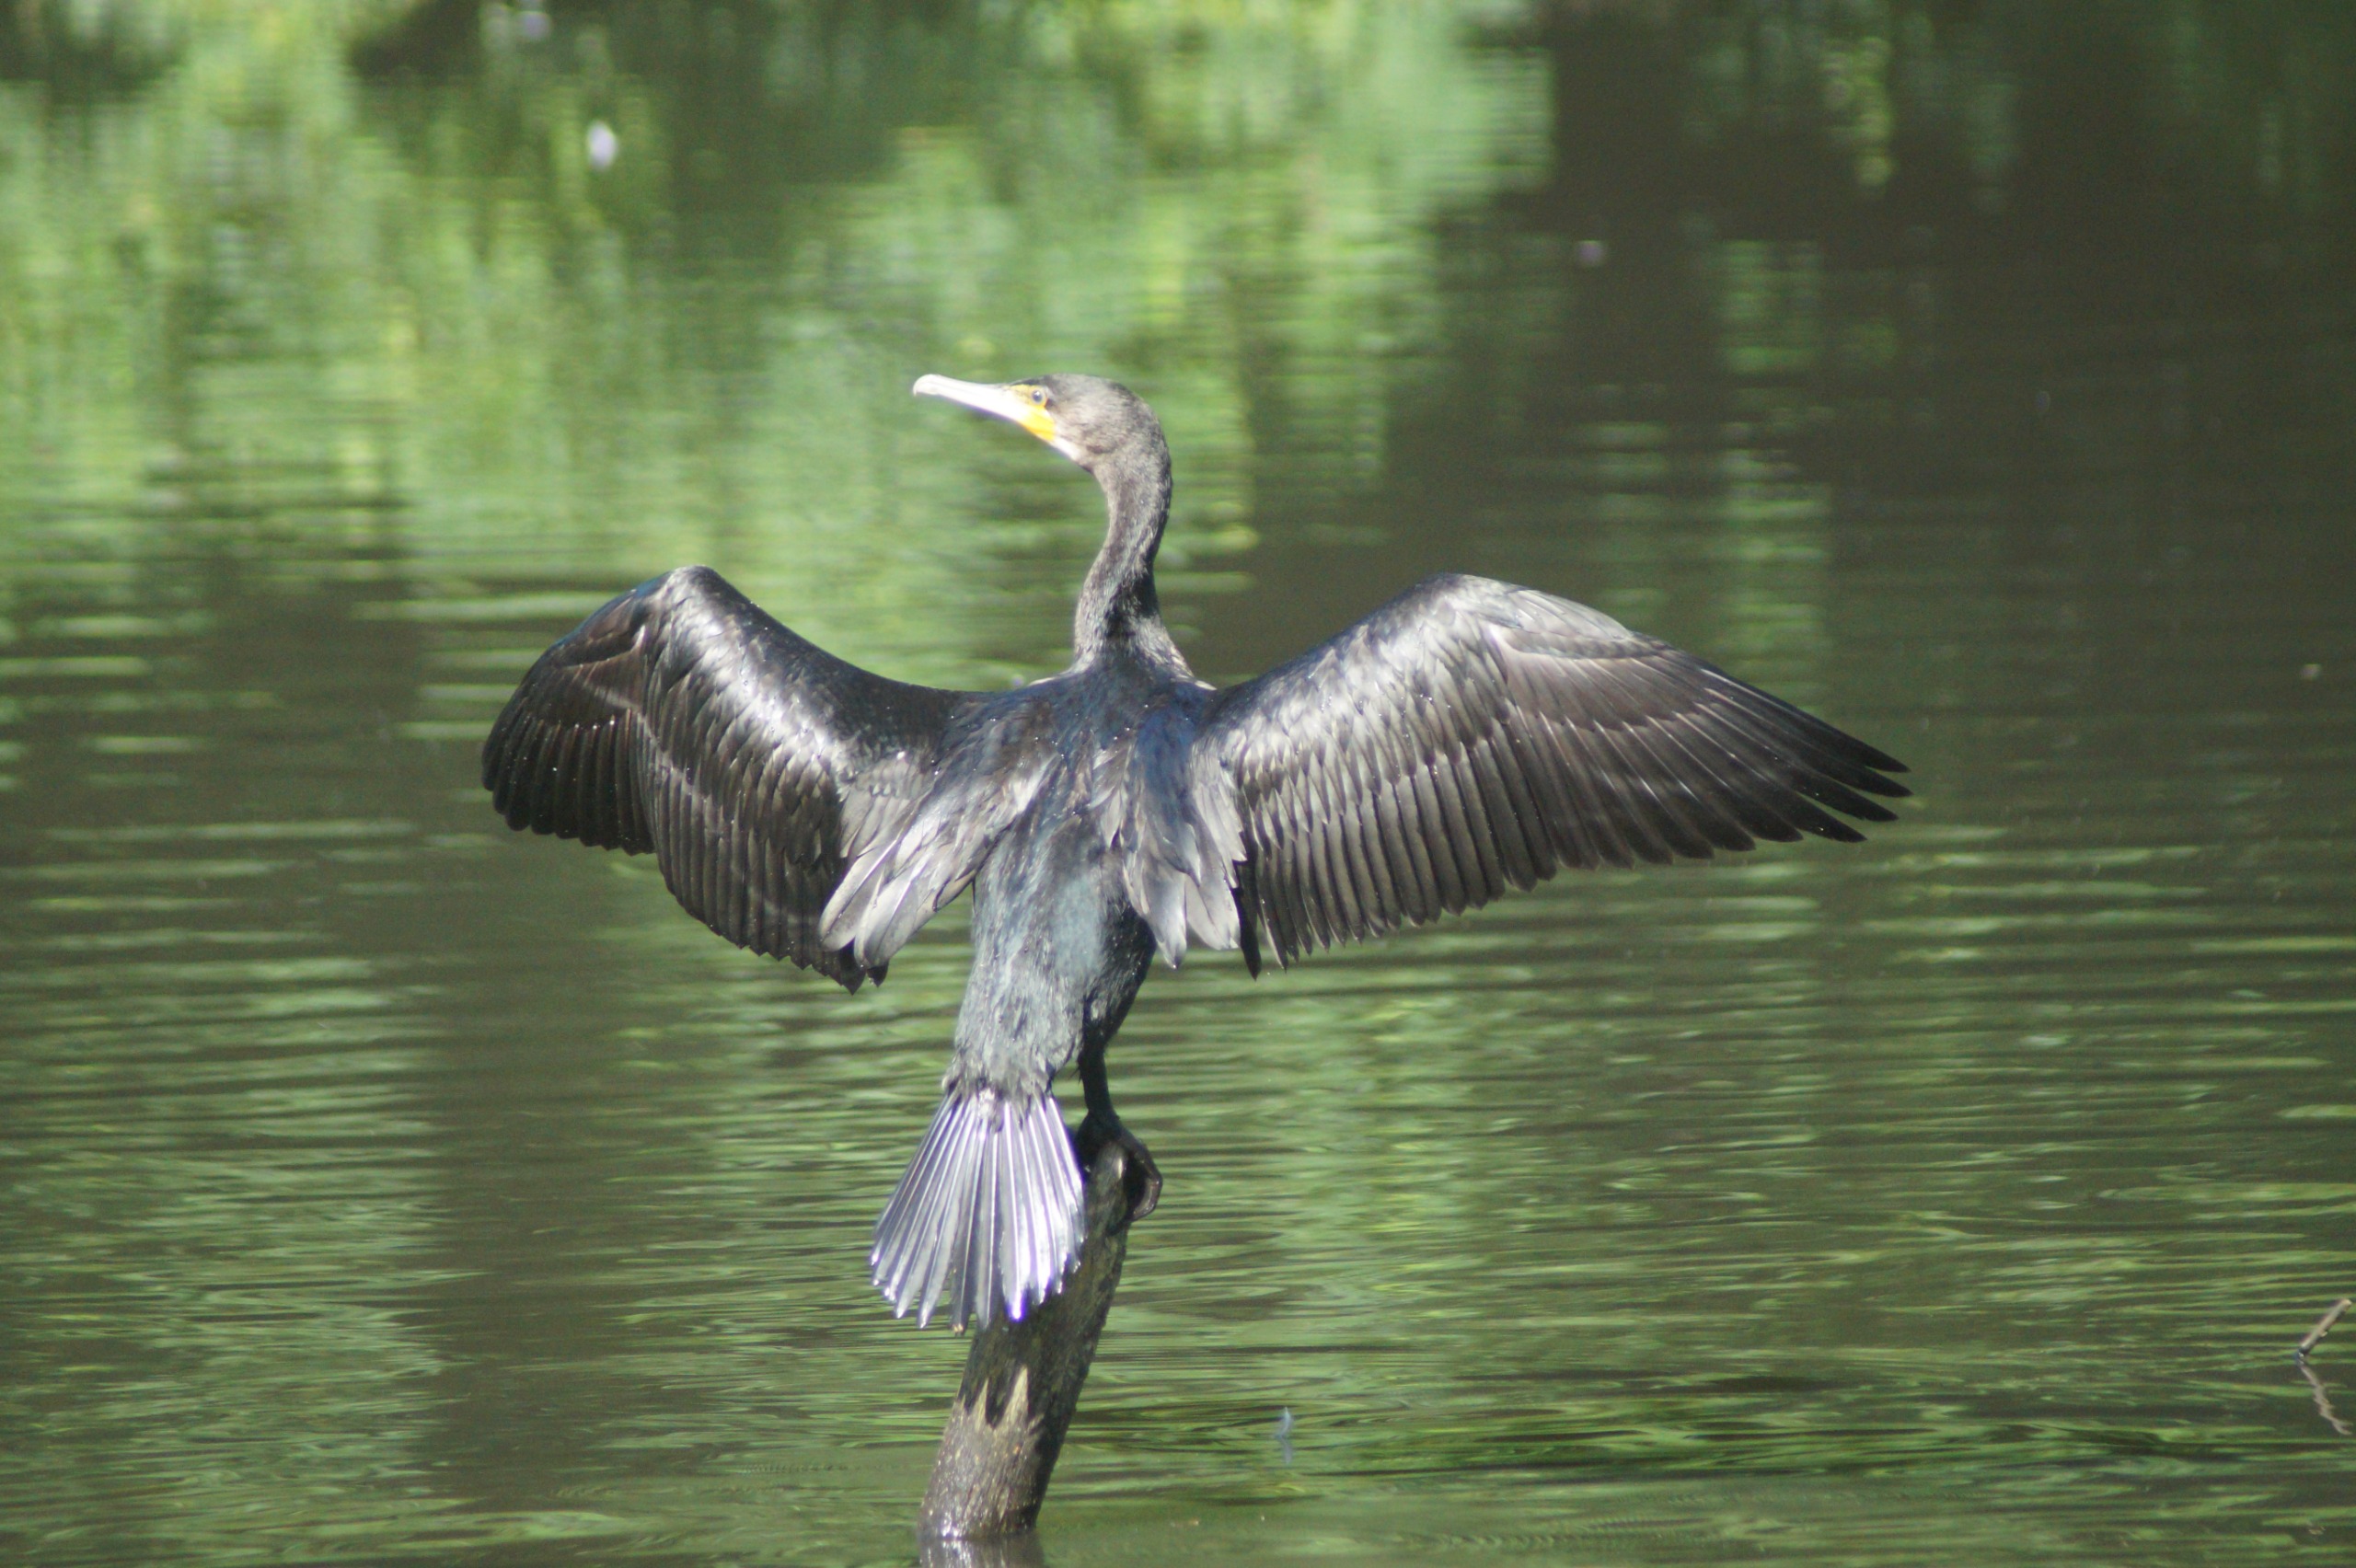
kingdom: Animalia
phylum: Chordata
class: Aves
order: Suliformes
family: Phalacrocoracidae
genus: Phalacrocorax
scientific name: Phalacrocorax carbo
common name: Skarv
